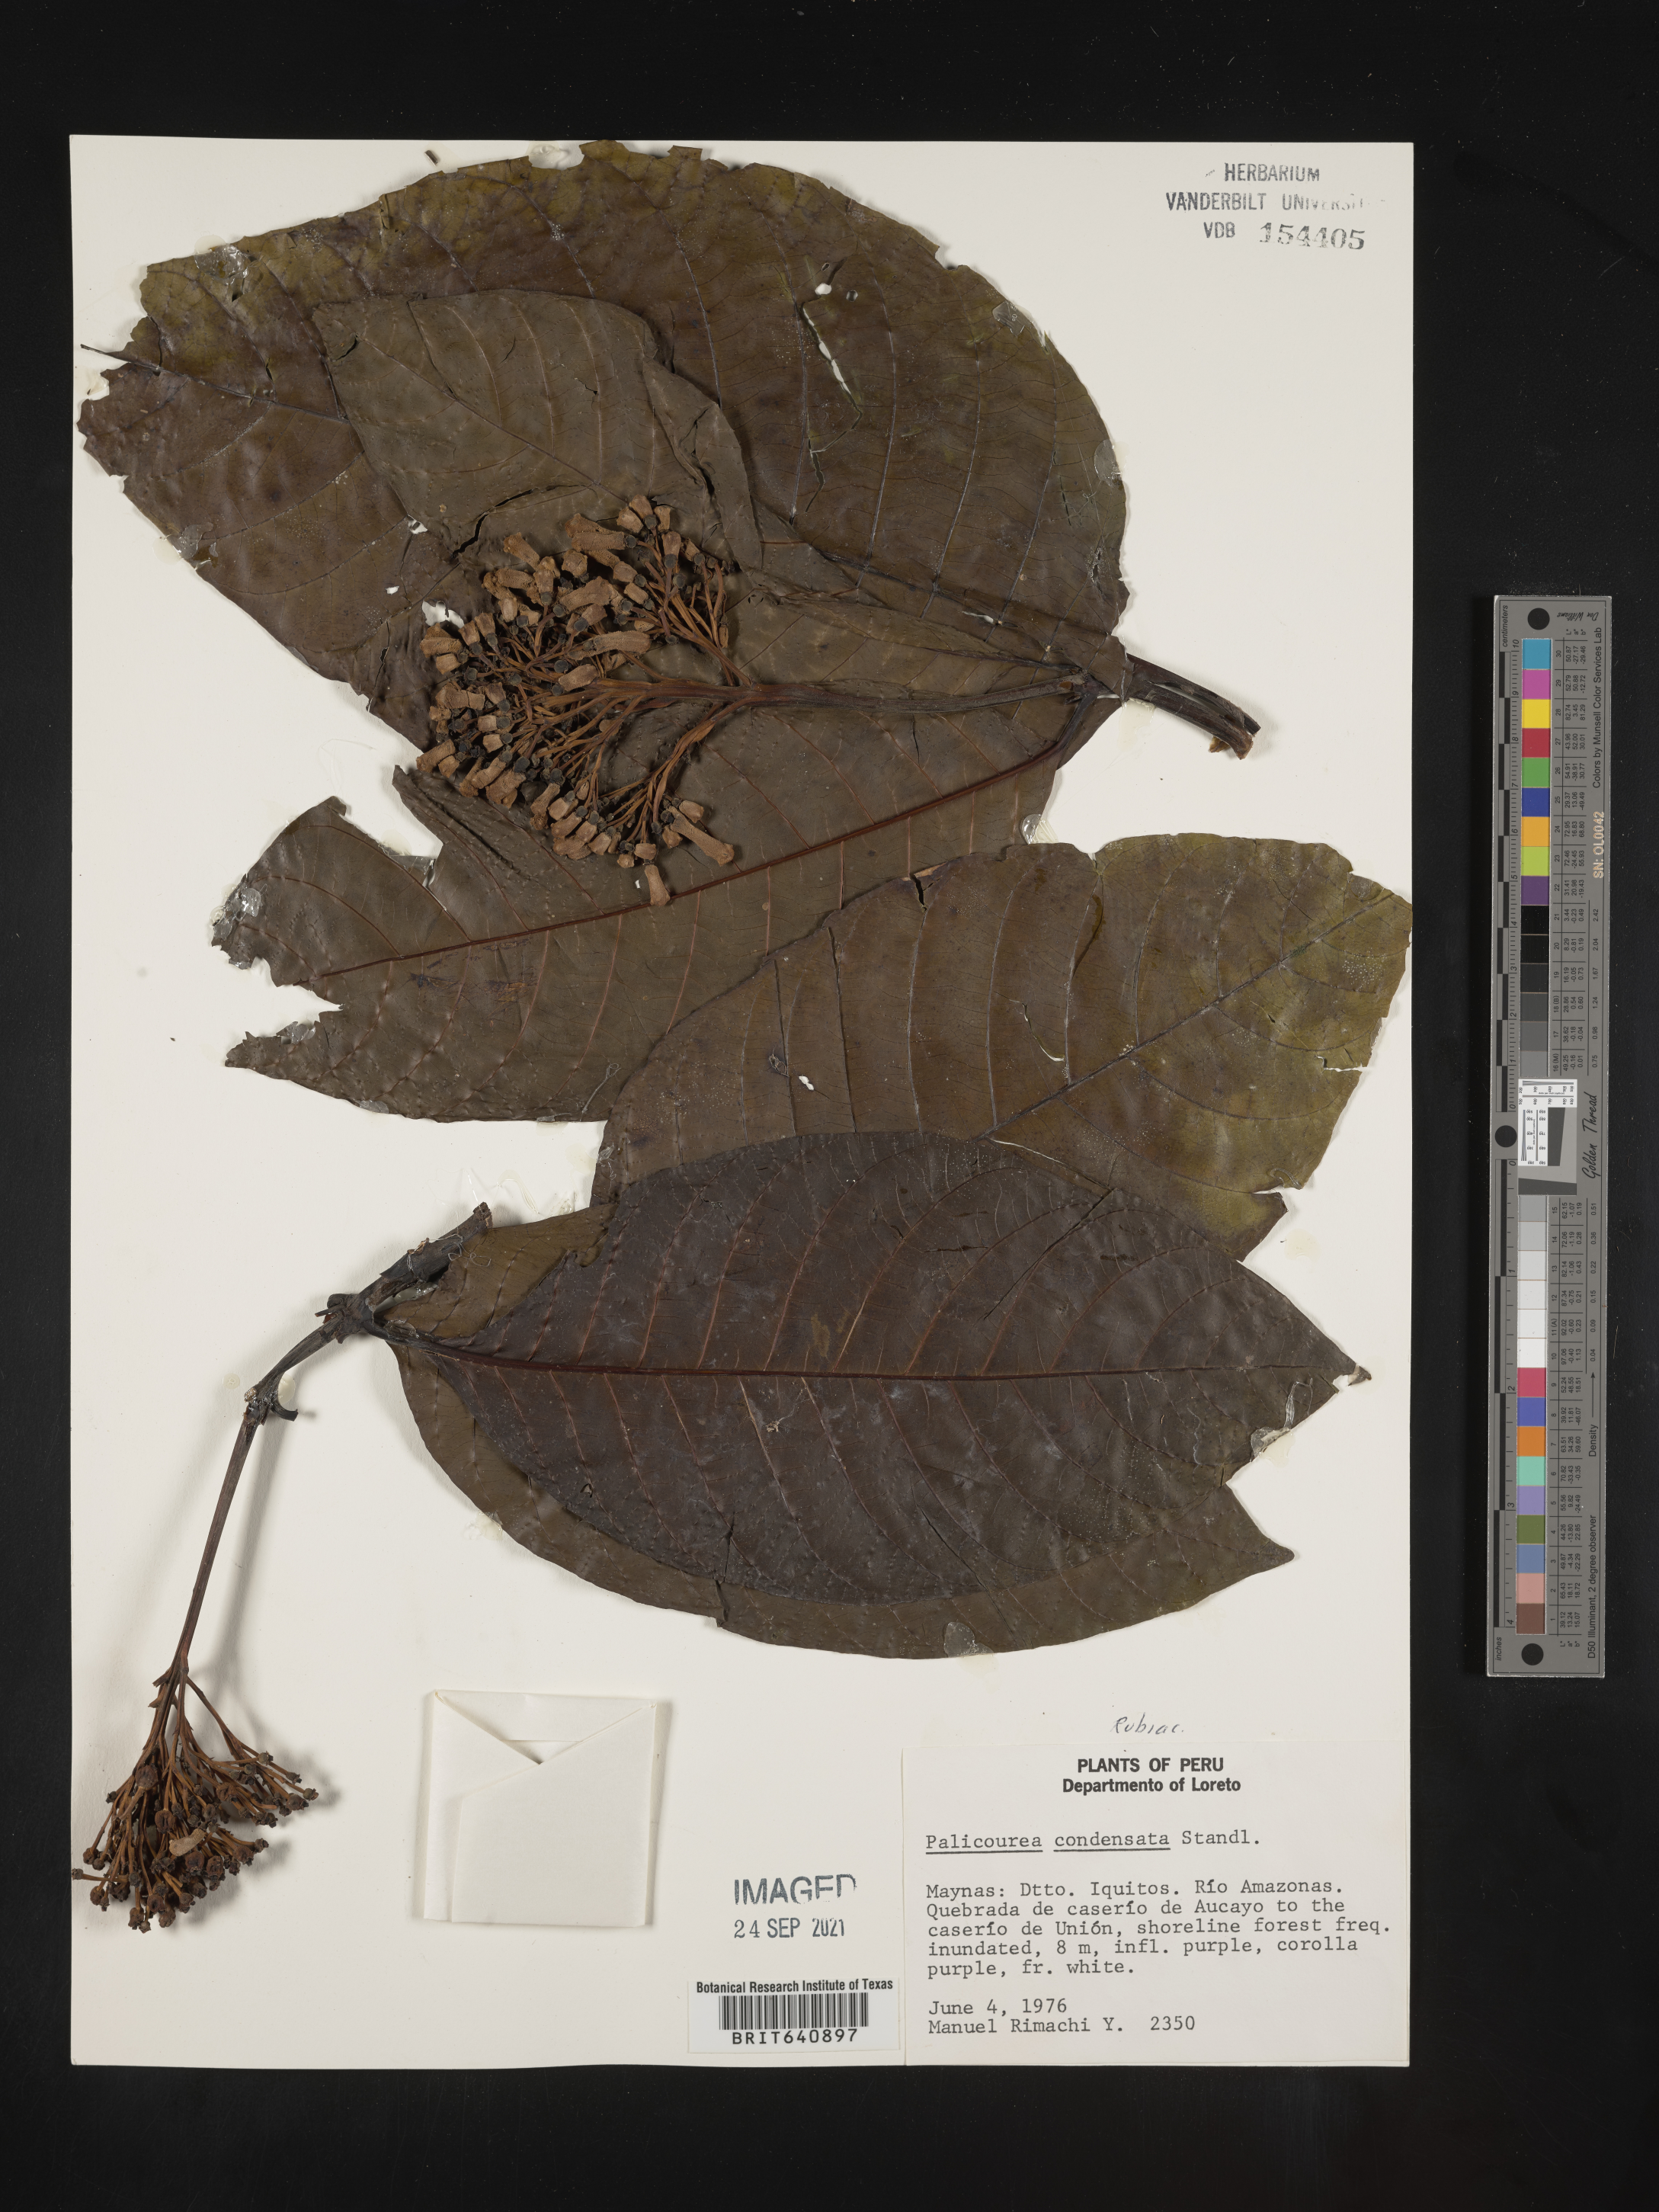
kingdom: Plantae
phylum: Tracheophyta
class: Magnoliopsida
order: Gentianales
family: Rubiaceae
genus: Palicourea
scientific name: Palicourea
